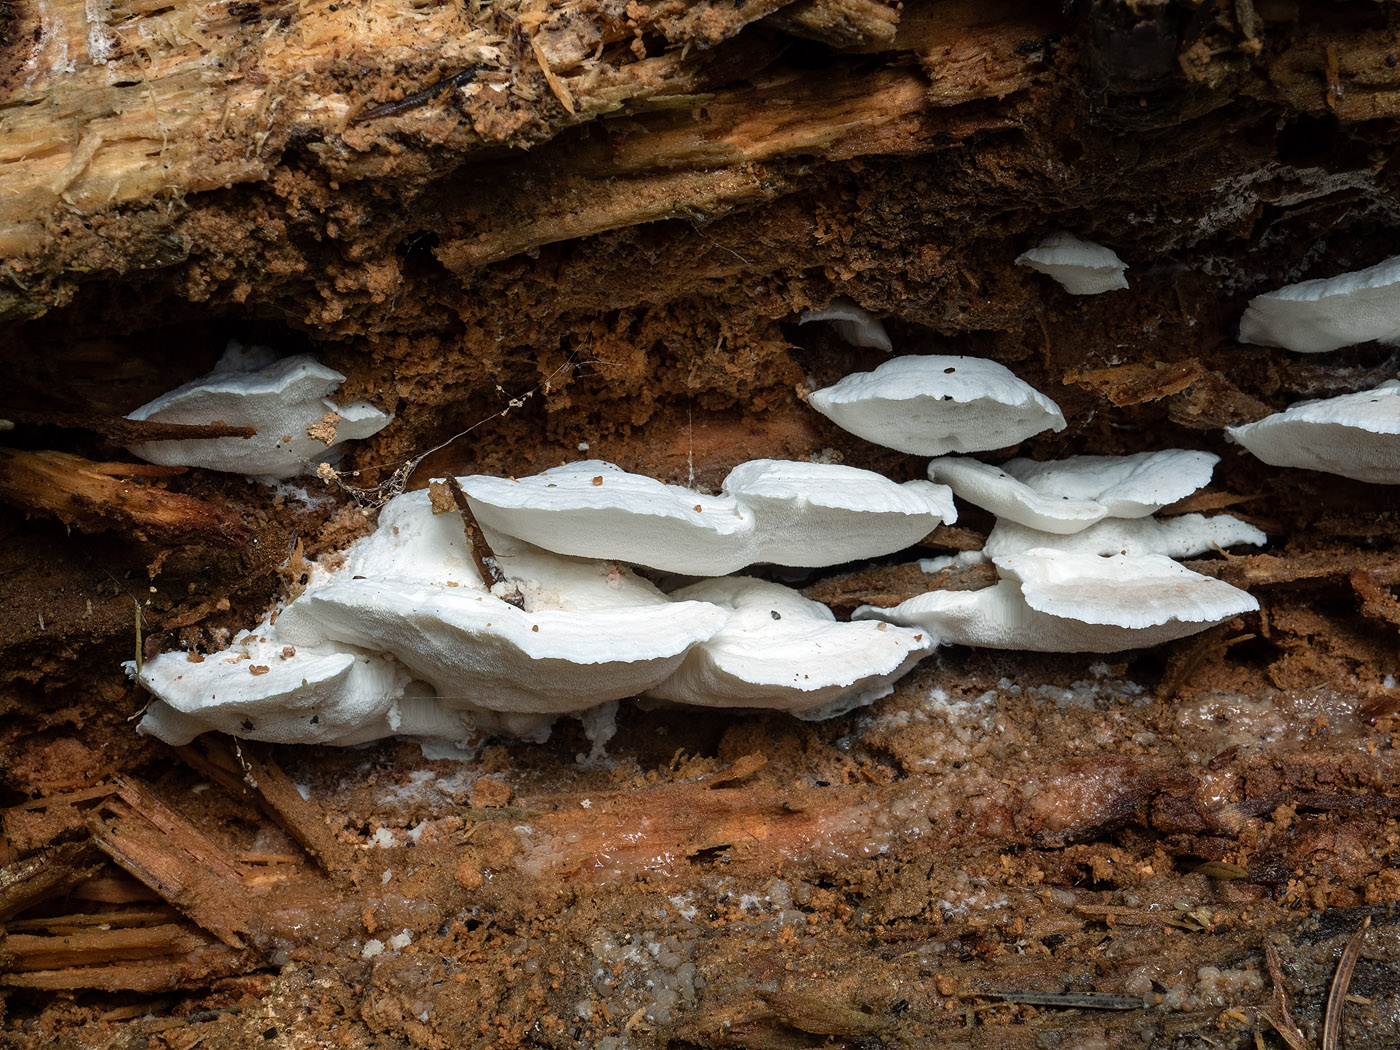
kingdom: Fungi
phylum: Basidiomycota
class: Agaricomycetes
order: Polyporales
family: Incrustoporiaceae
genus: Tyromyces
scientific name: Tyromyces lacteus
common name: mælkehvid kødporesvamp
